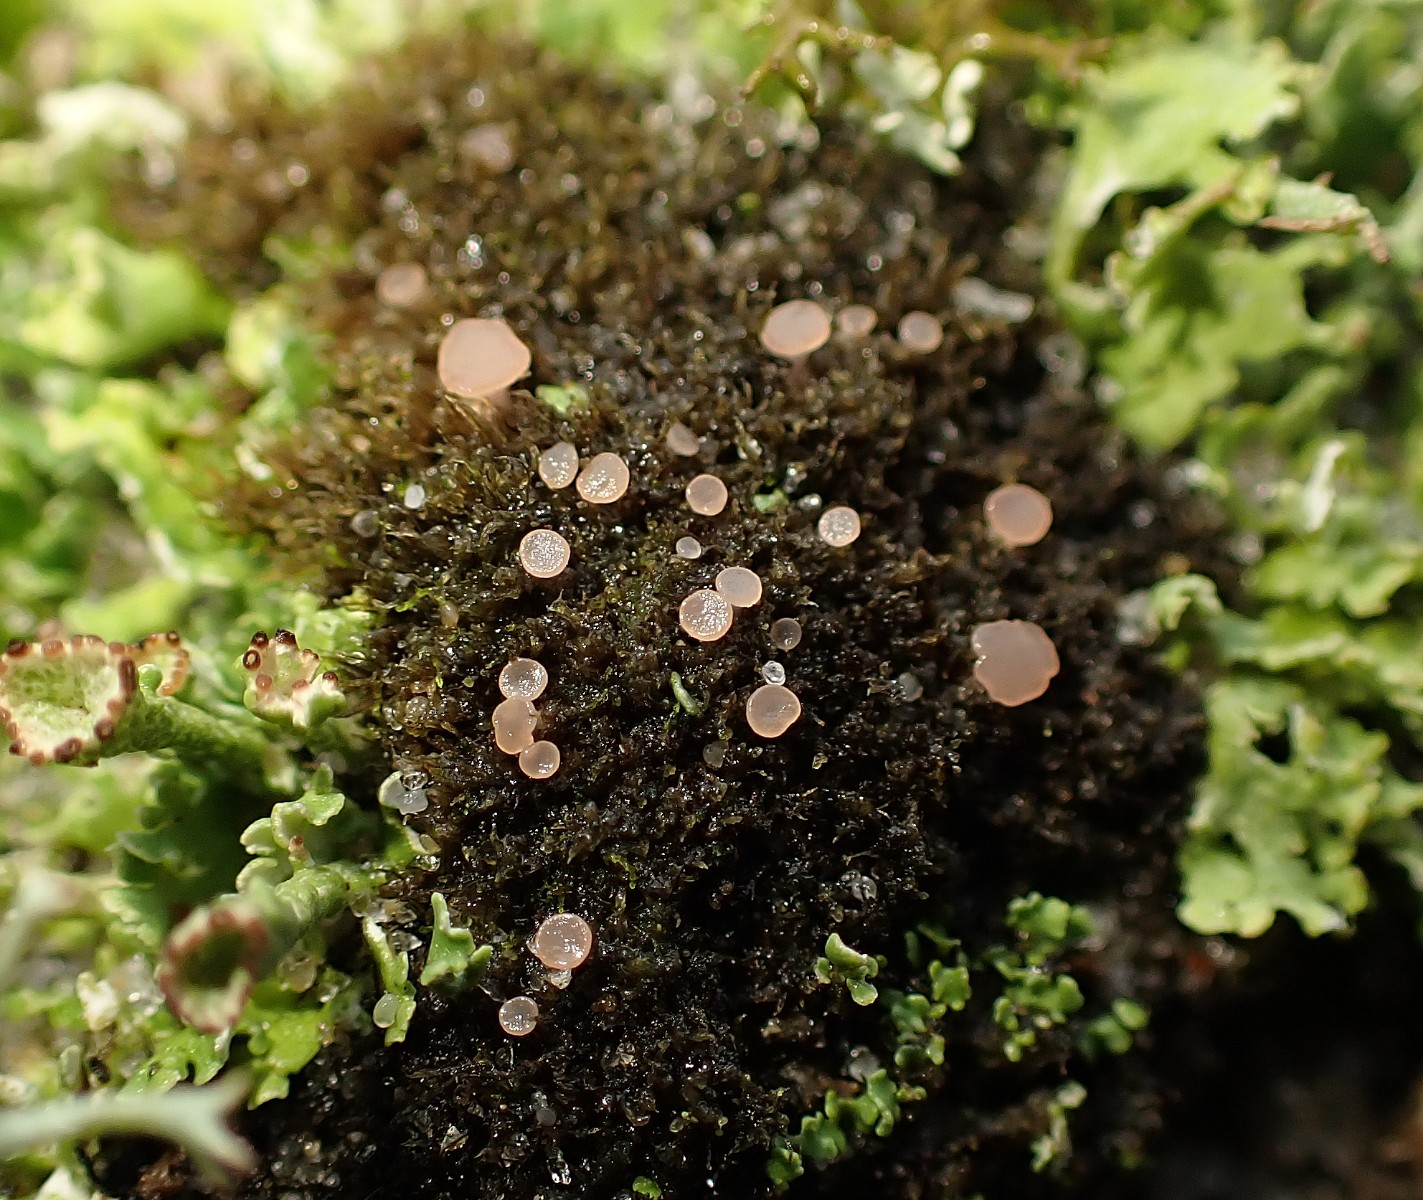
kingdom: Fungi
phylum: Ascomycota
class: Leotiomycetes
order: Helotiales
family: Hyaloscyphaceae
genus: Roseodiscus
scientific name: Roseodiscus formosus
